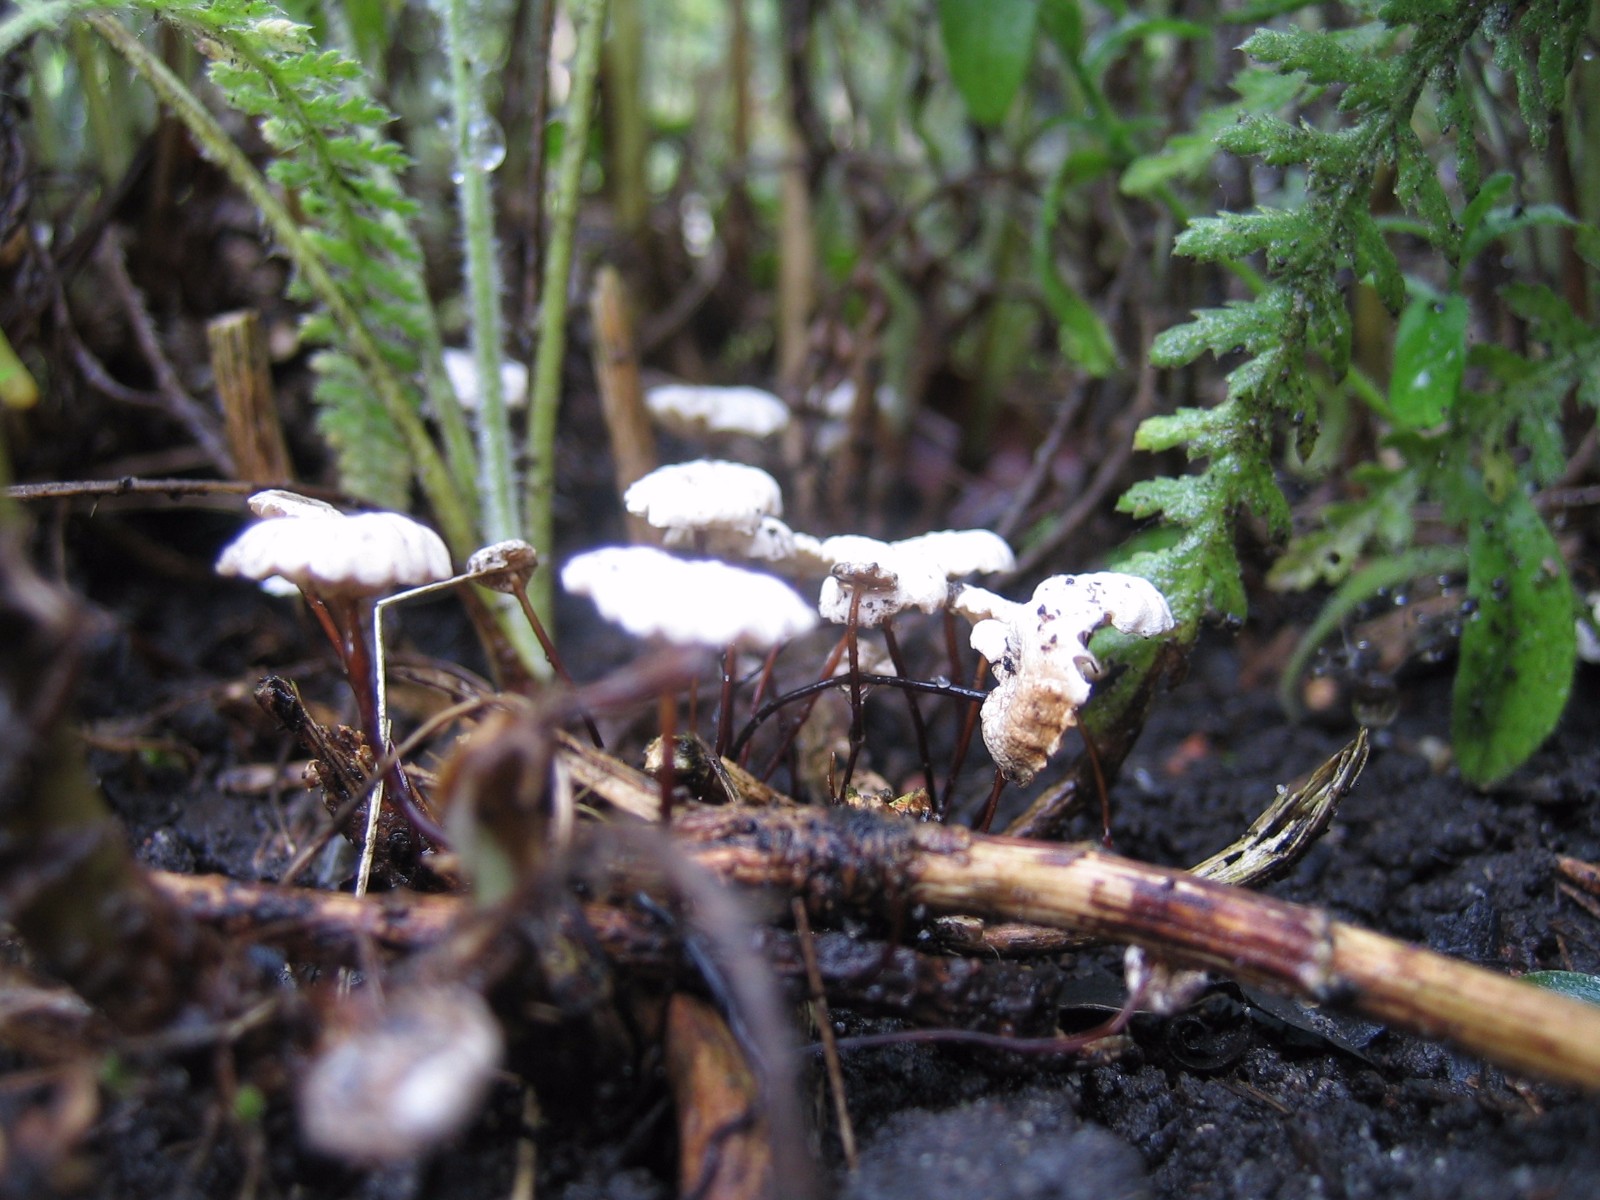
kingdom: Fungi
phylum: Basidiomycota
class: Agaricomycetes
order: Agaricales
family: Marasmiaceae
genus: Marasmius
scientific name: Marasmius rotula
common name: hjul-bruskhat
